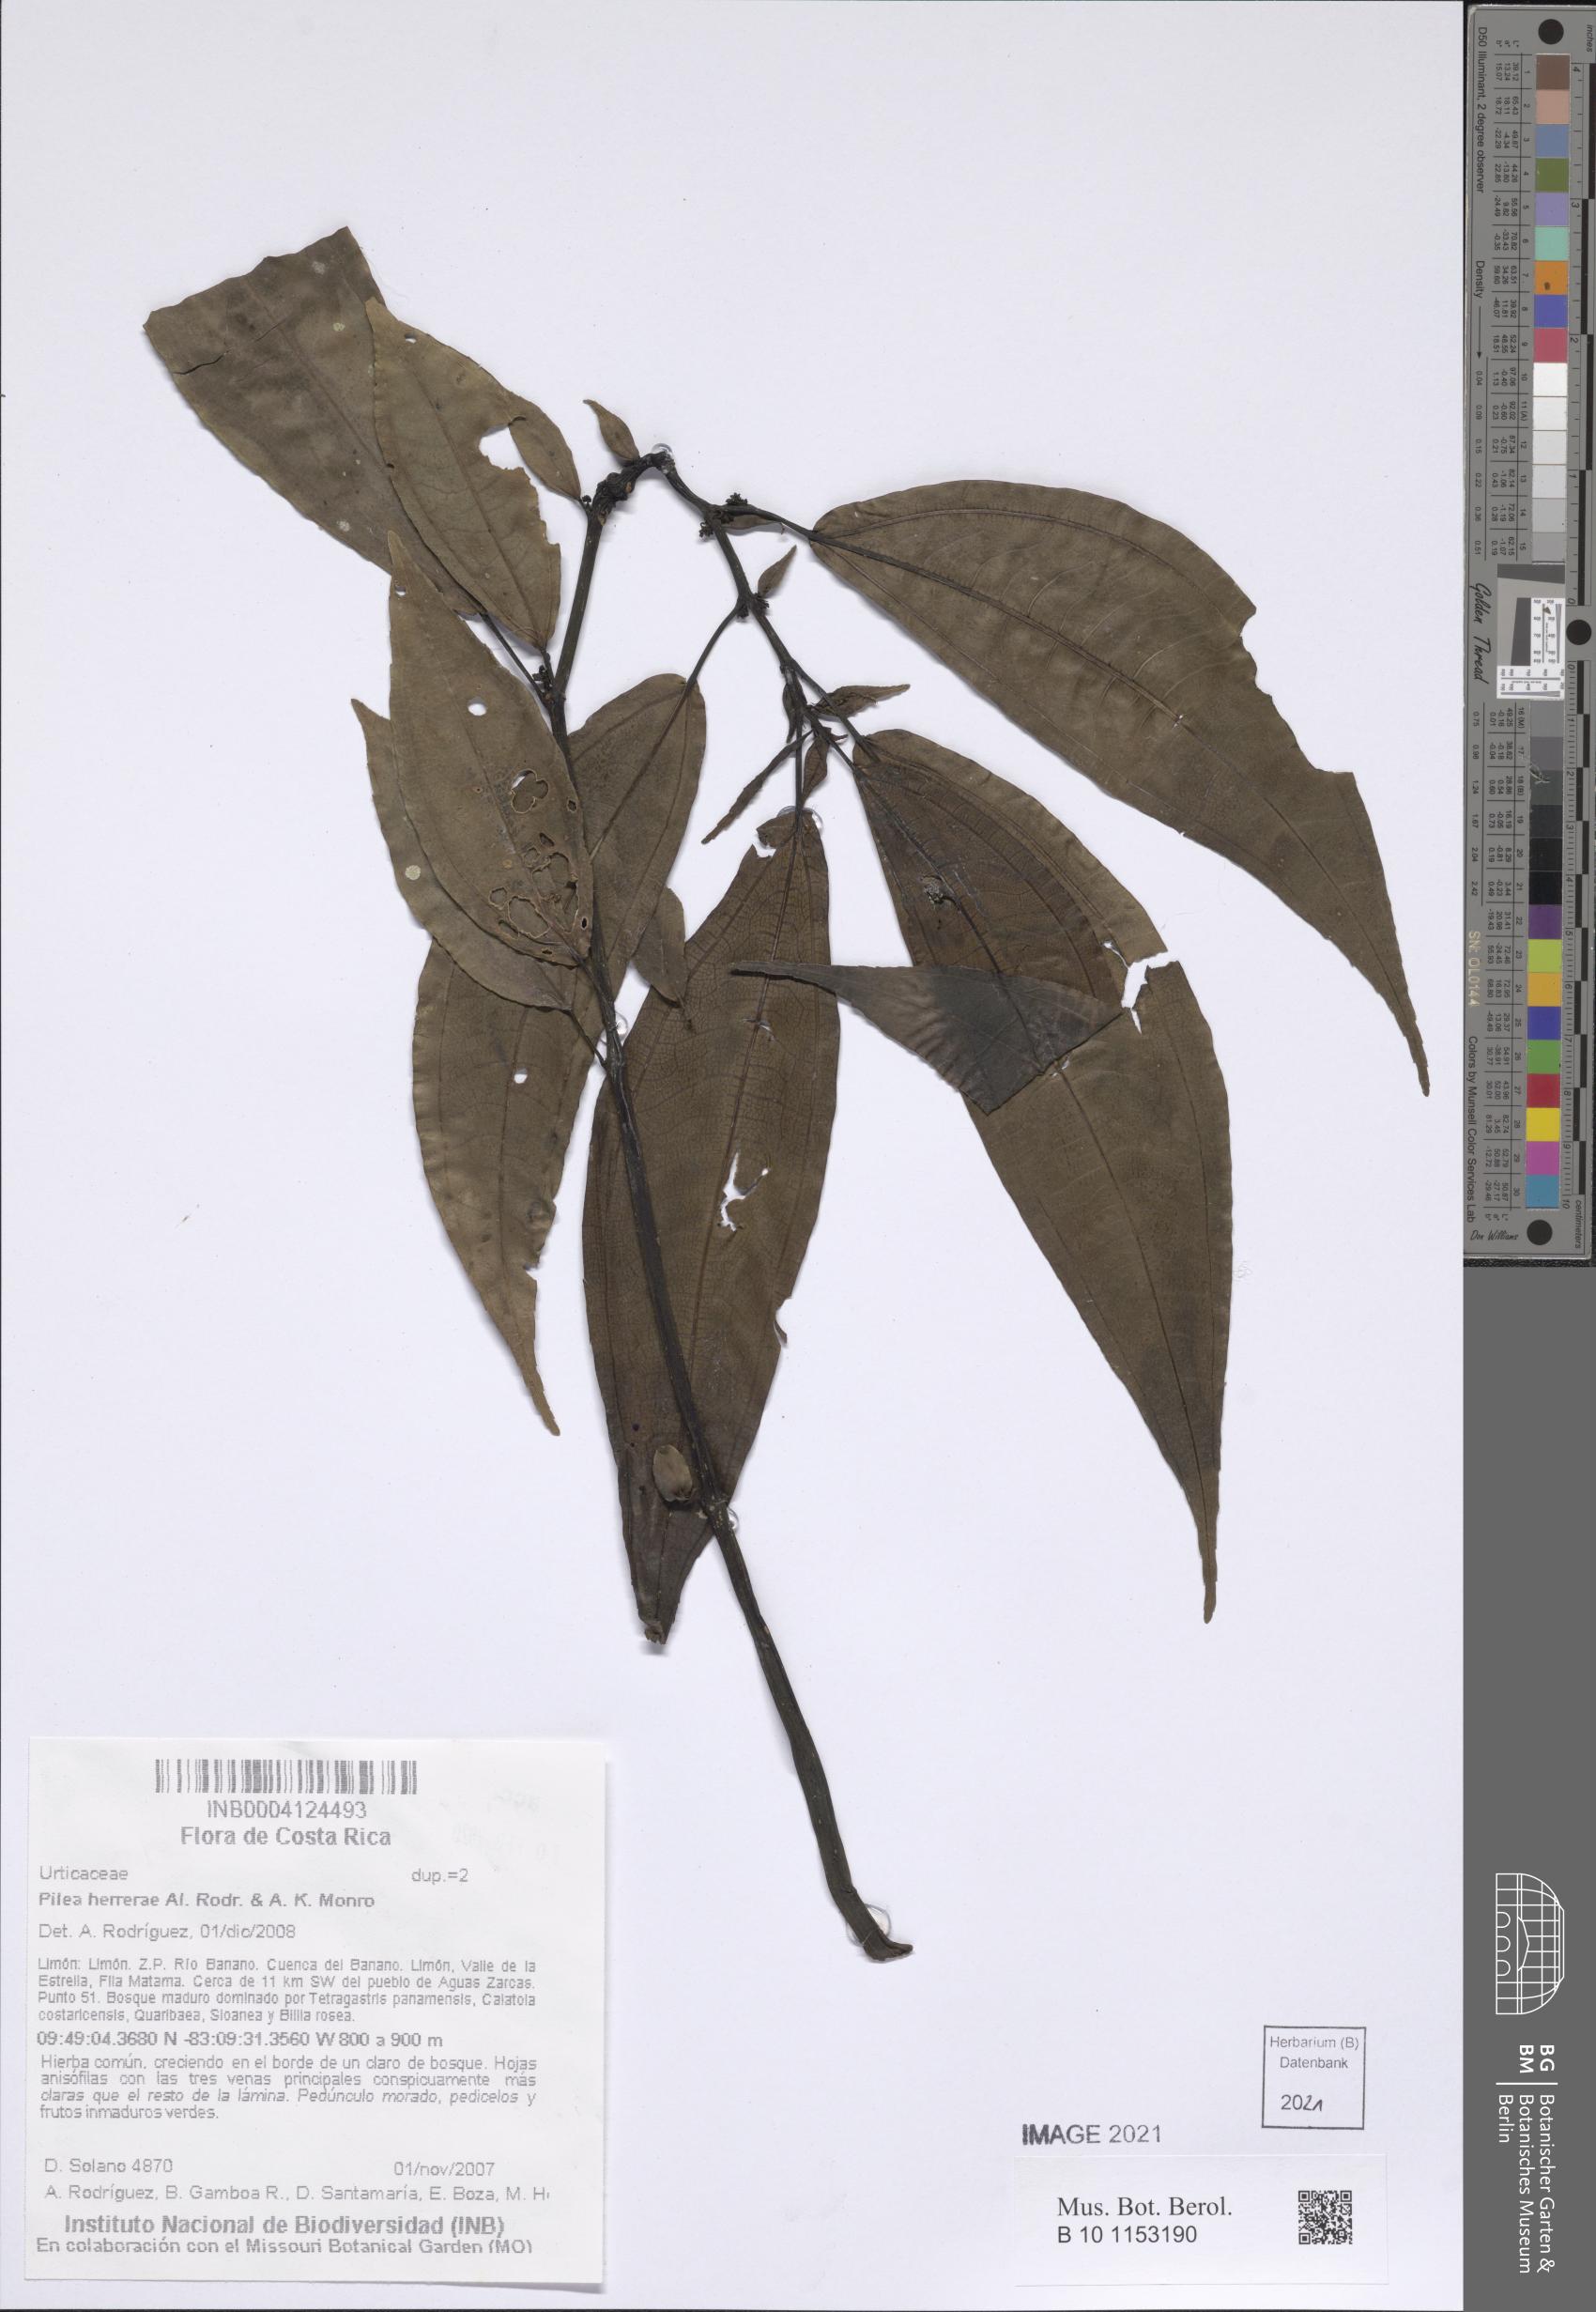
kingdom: Plantae
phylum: Tracheophyta
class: Magnoliopsida
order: Rosales
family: Urticaceae
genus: Pilea
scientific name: Pilea herrerae
